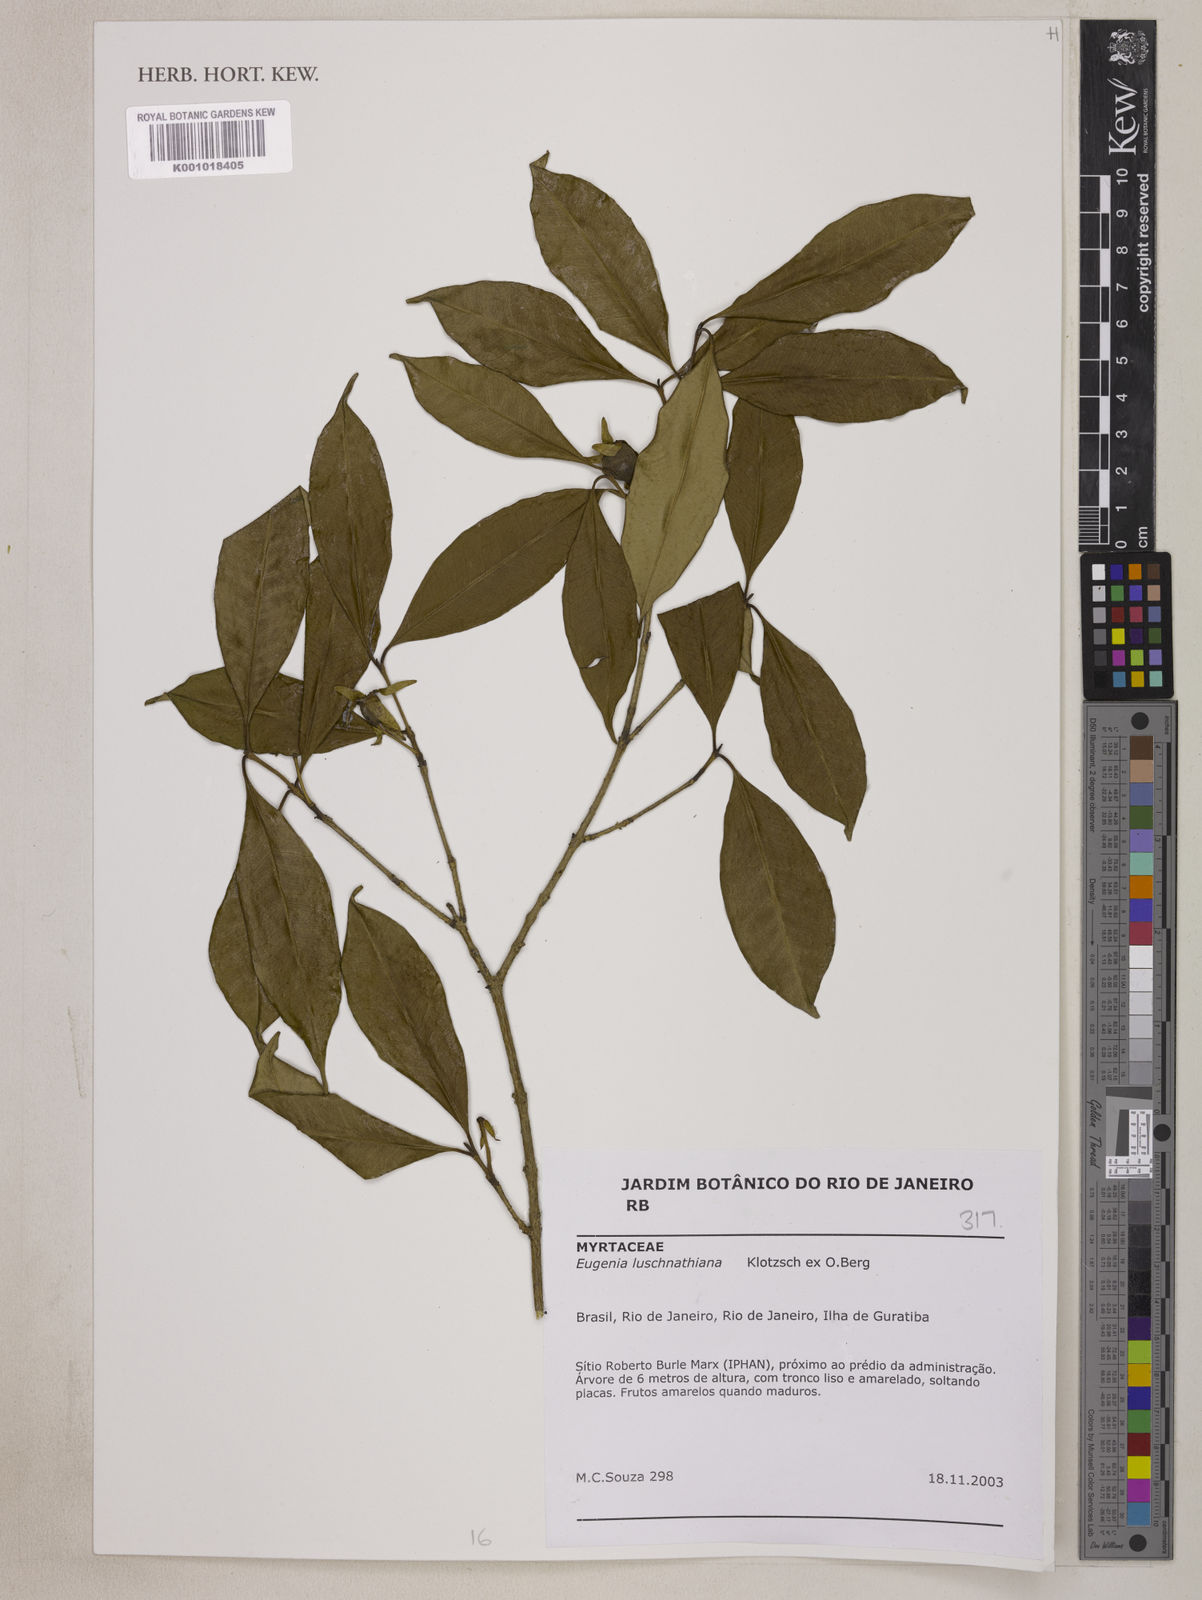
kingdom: Plantae
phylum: Tracheophyta
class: Magnoliopsida
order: Myrtales
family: Myrtaceae
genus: Eugenia
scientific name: Eugenia
